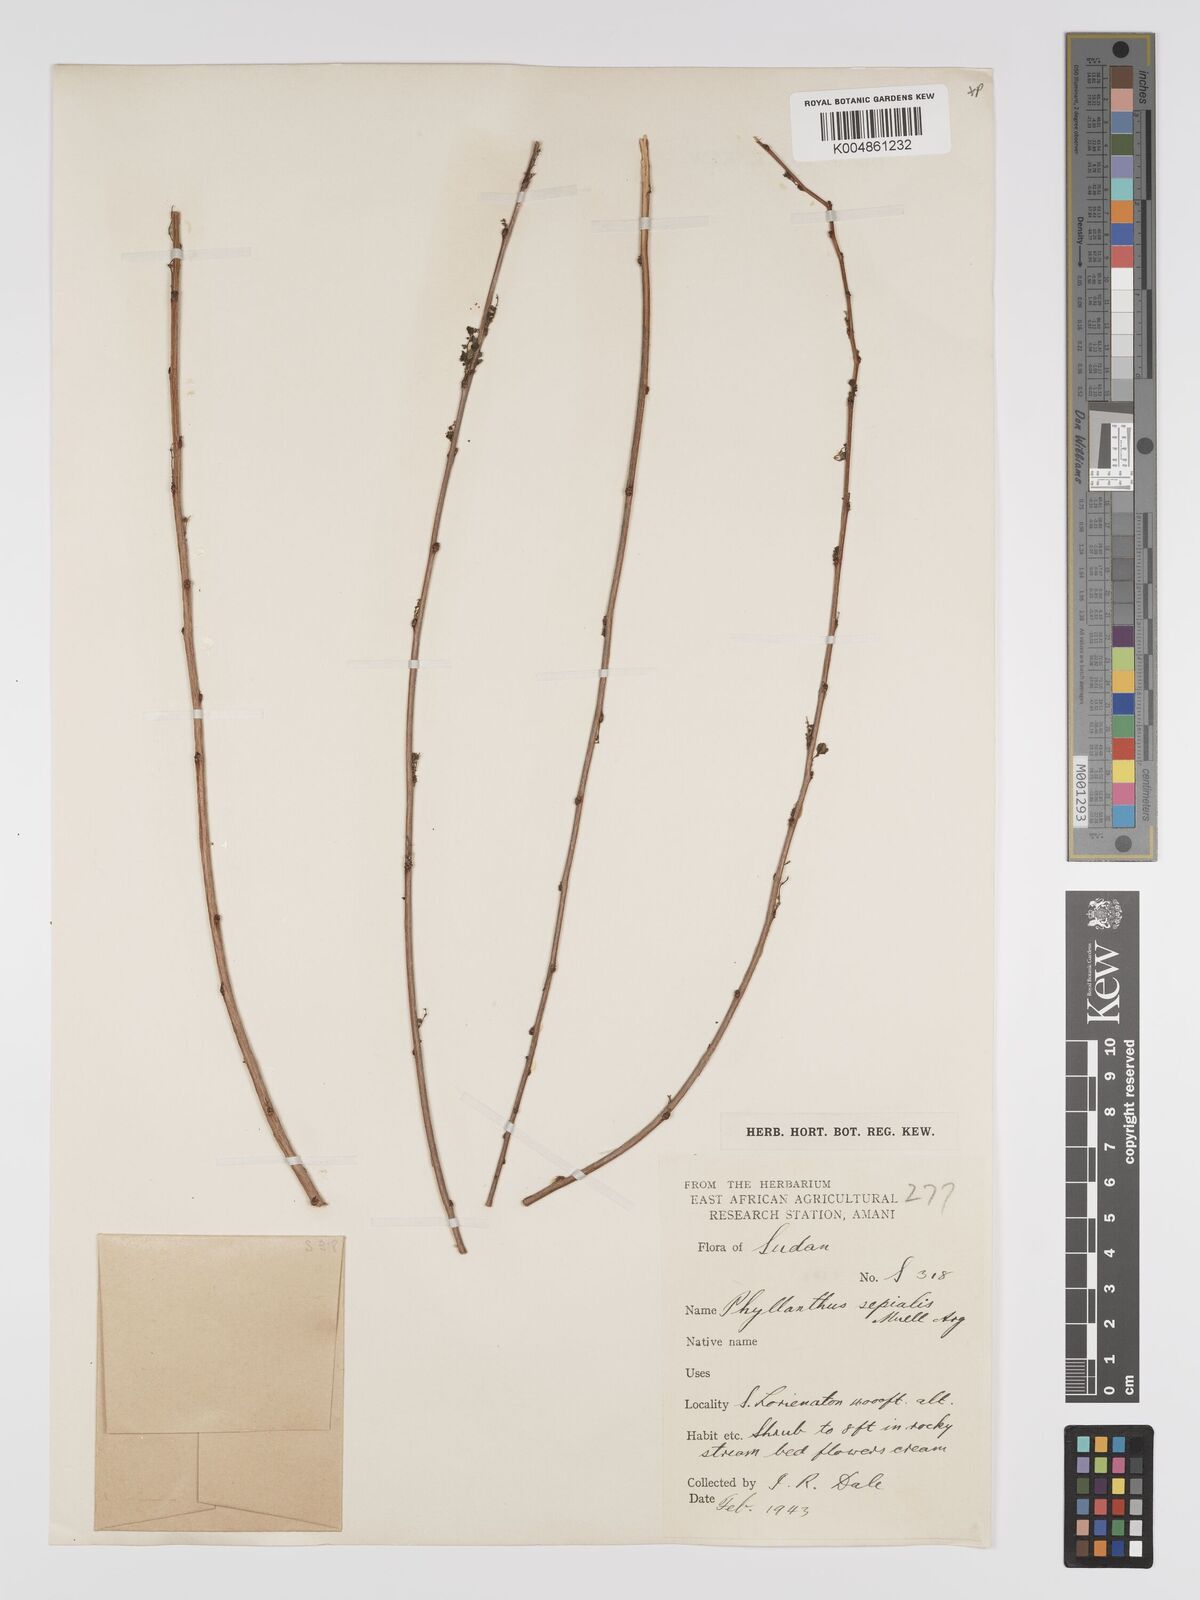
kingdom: Plantae
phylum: Tracheophyta
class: Magnoliopsida
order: Malpighiales
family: Phyllanthaceae
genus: Phyllanthus
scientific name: Phyllanthus sepialis
